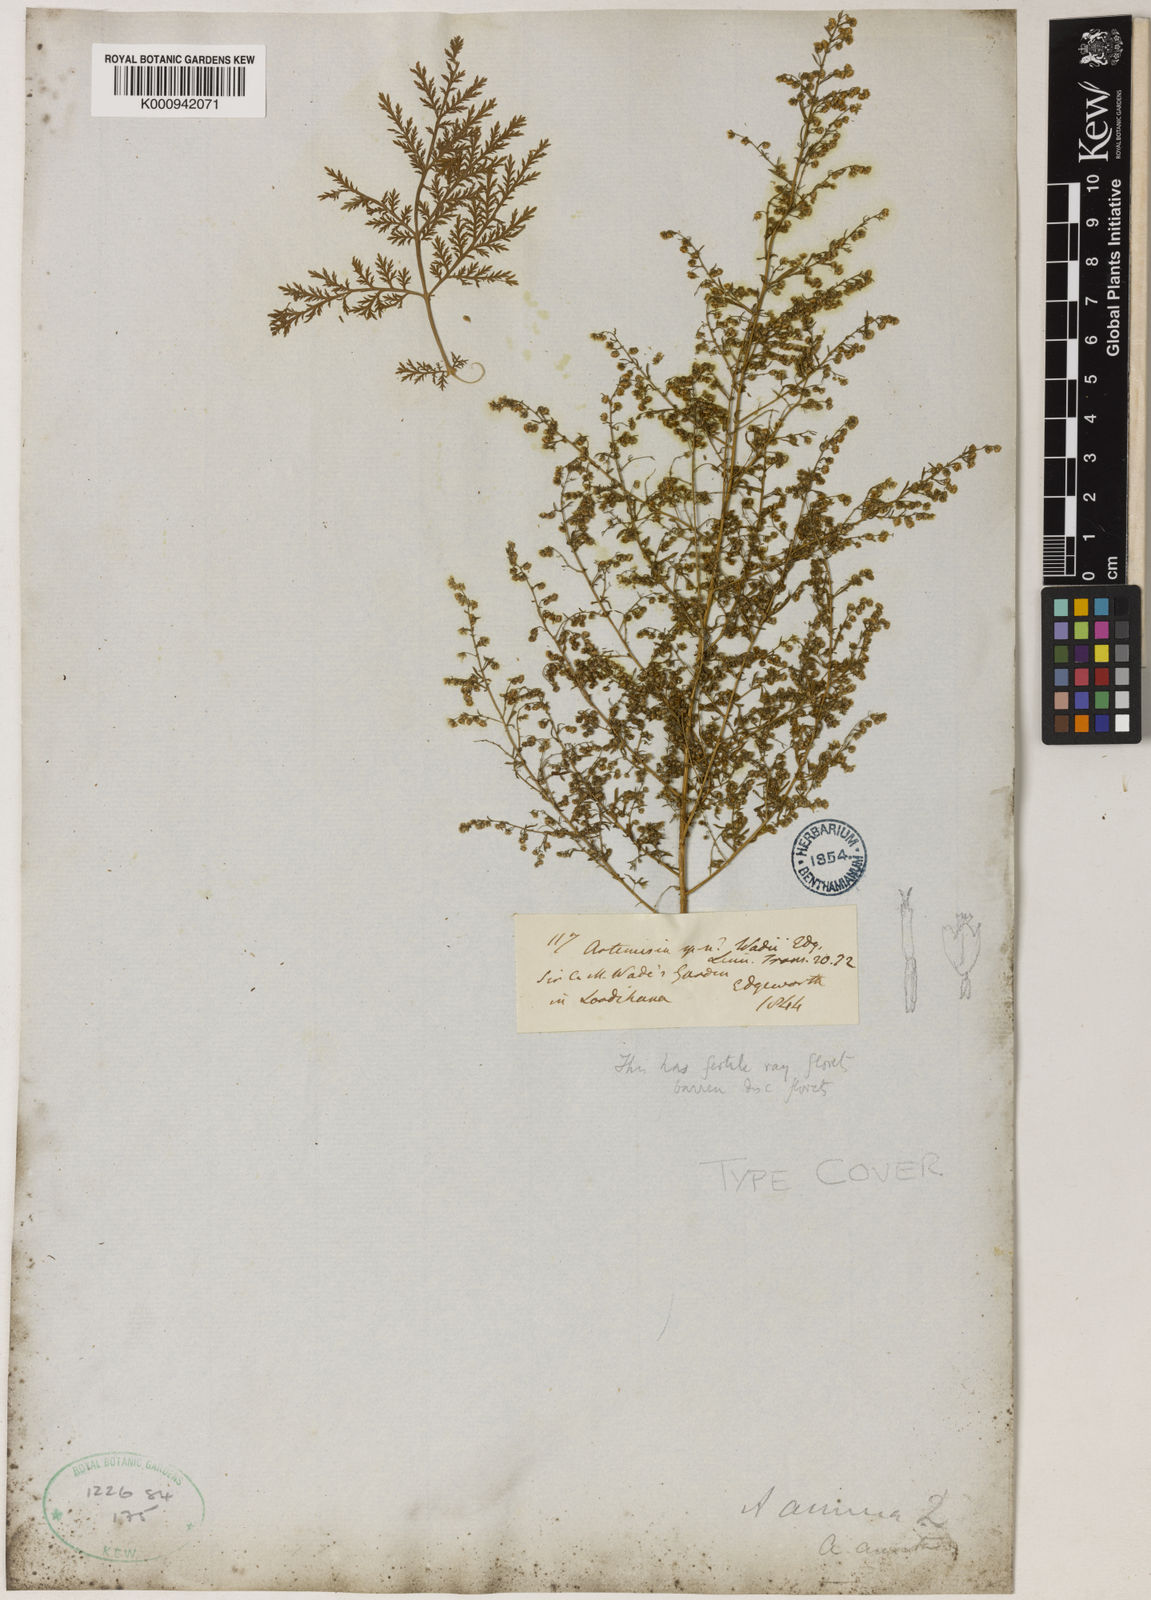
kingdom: Plantae
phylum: Tracheophyta
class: Magnoliopsida
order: Asterales
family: Asteraceae
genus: Artemisia
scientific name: Artemisia annua
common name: Sweet sagewort
